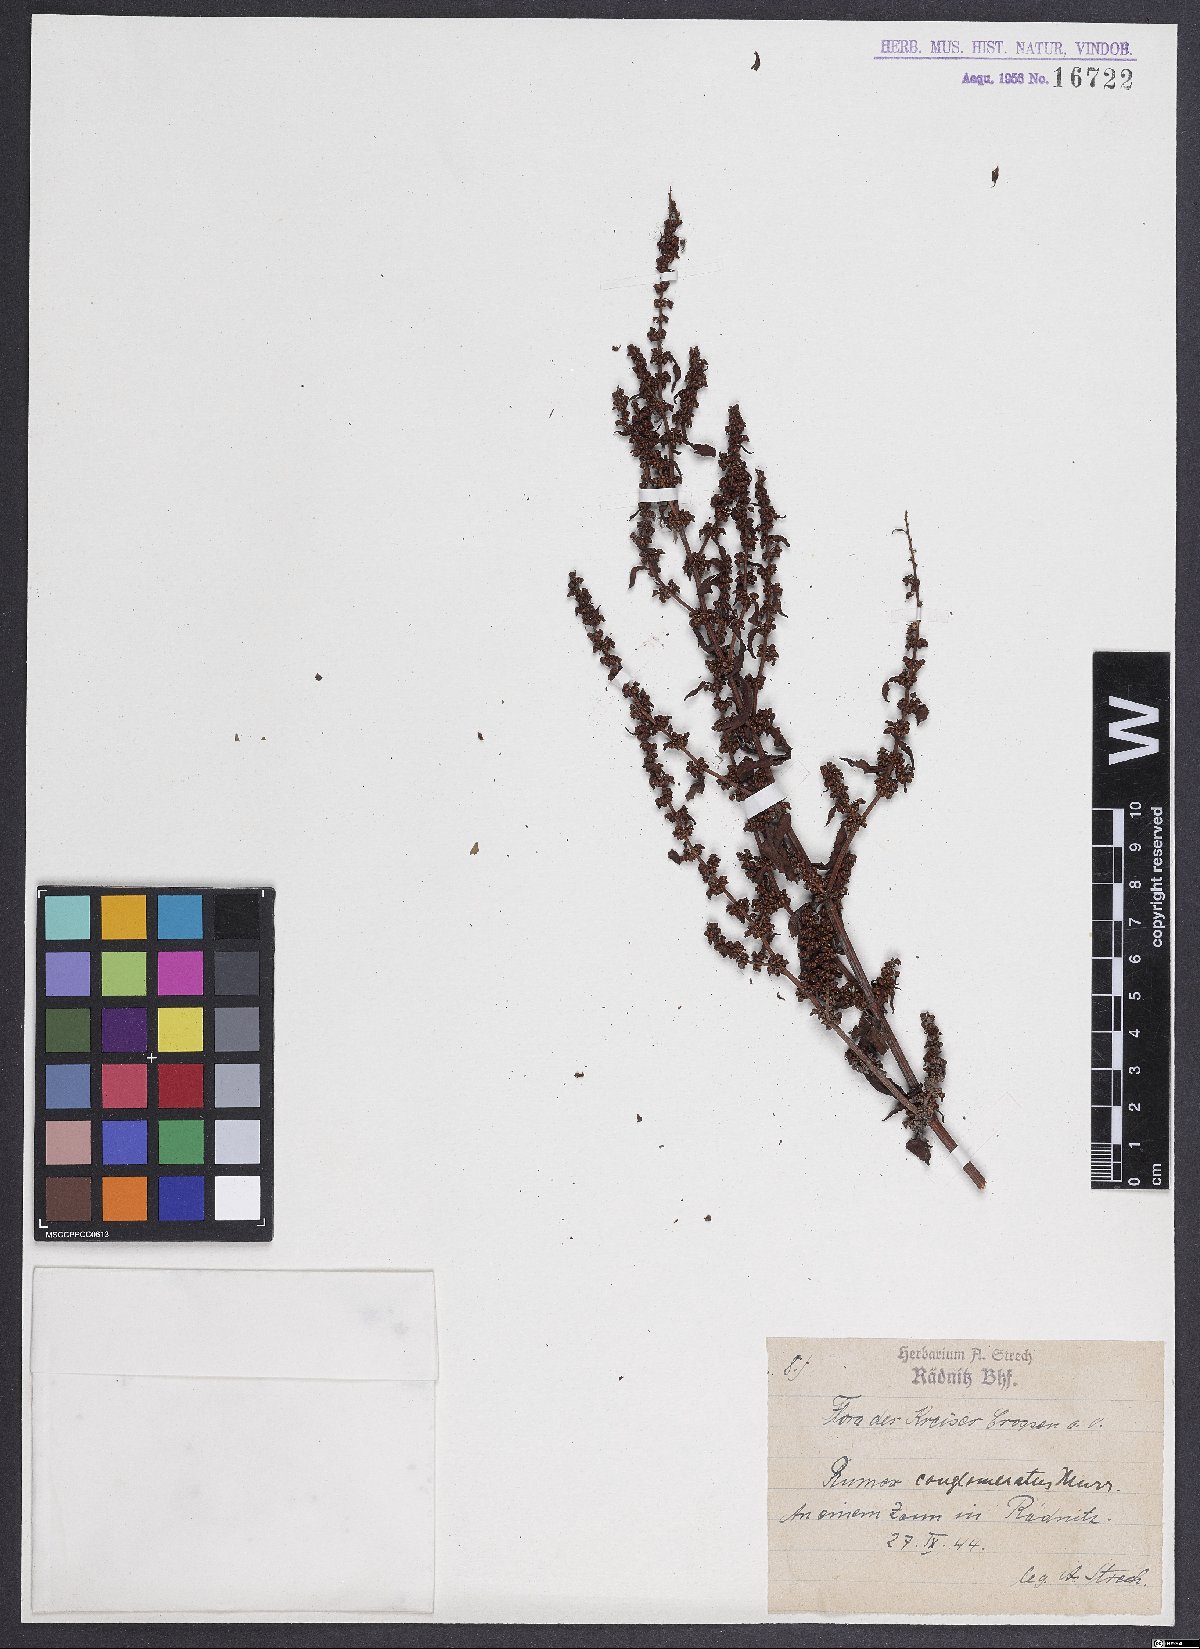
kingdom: Plantae
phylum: Tracheophyta
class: Magnoliopsida
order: Caryophyllales
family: Polygonaceae
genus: Rumex
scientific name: Rumex conglomeratus
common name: Clustered dock
